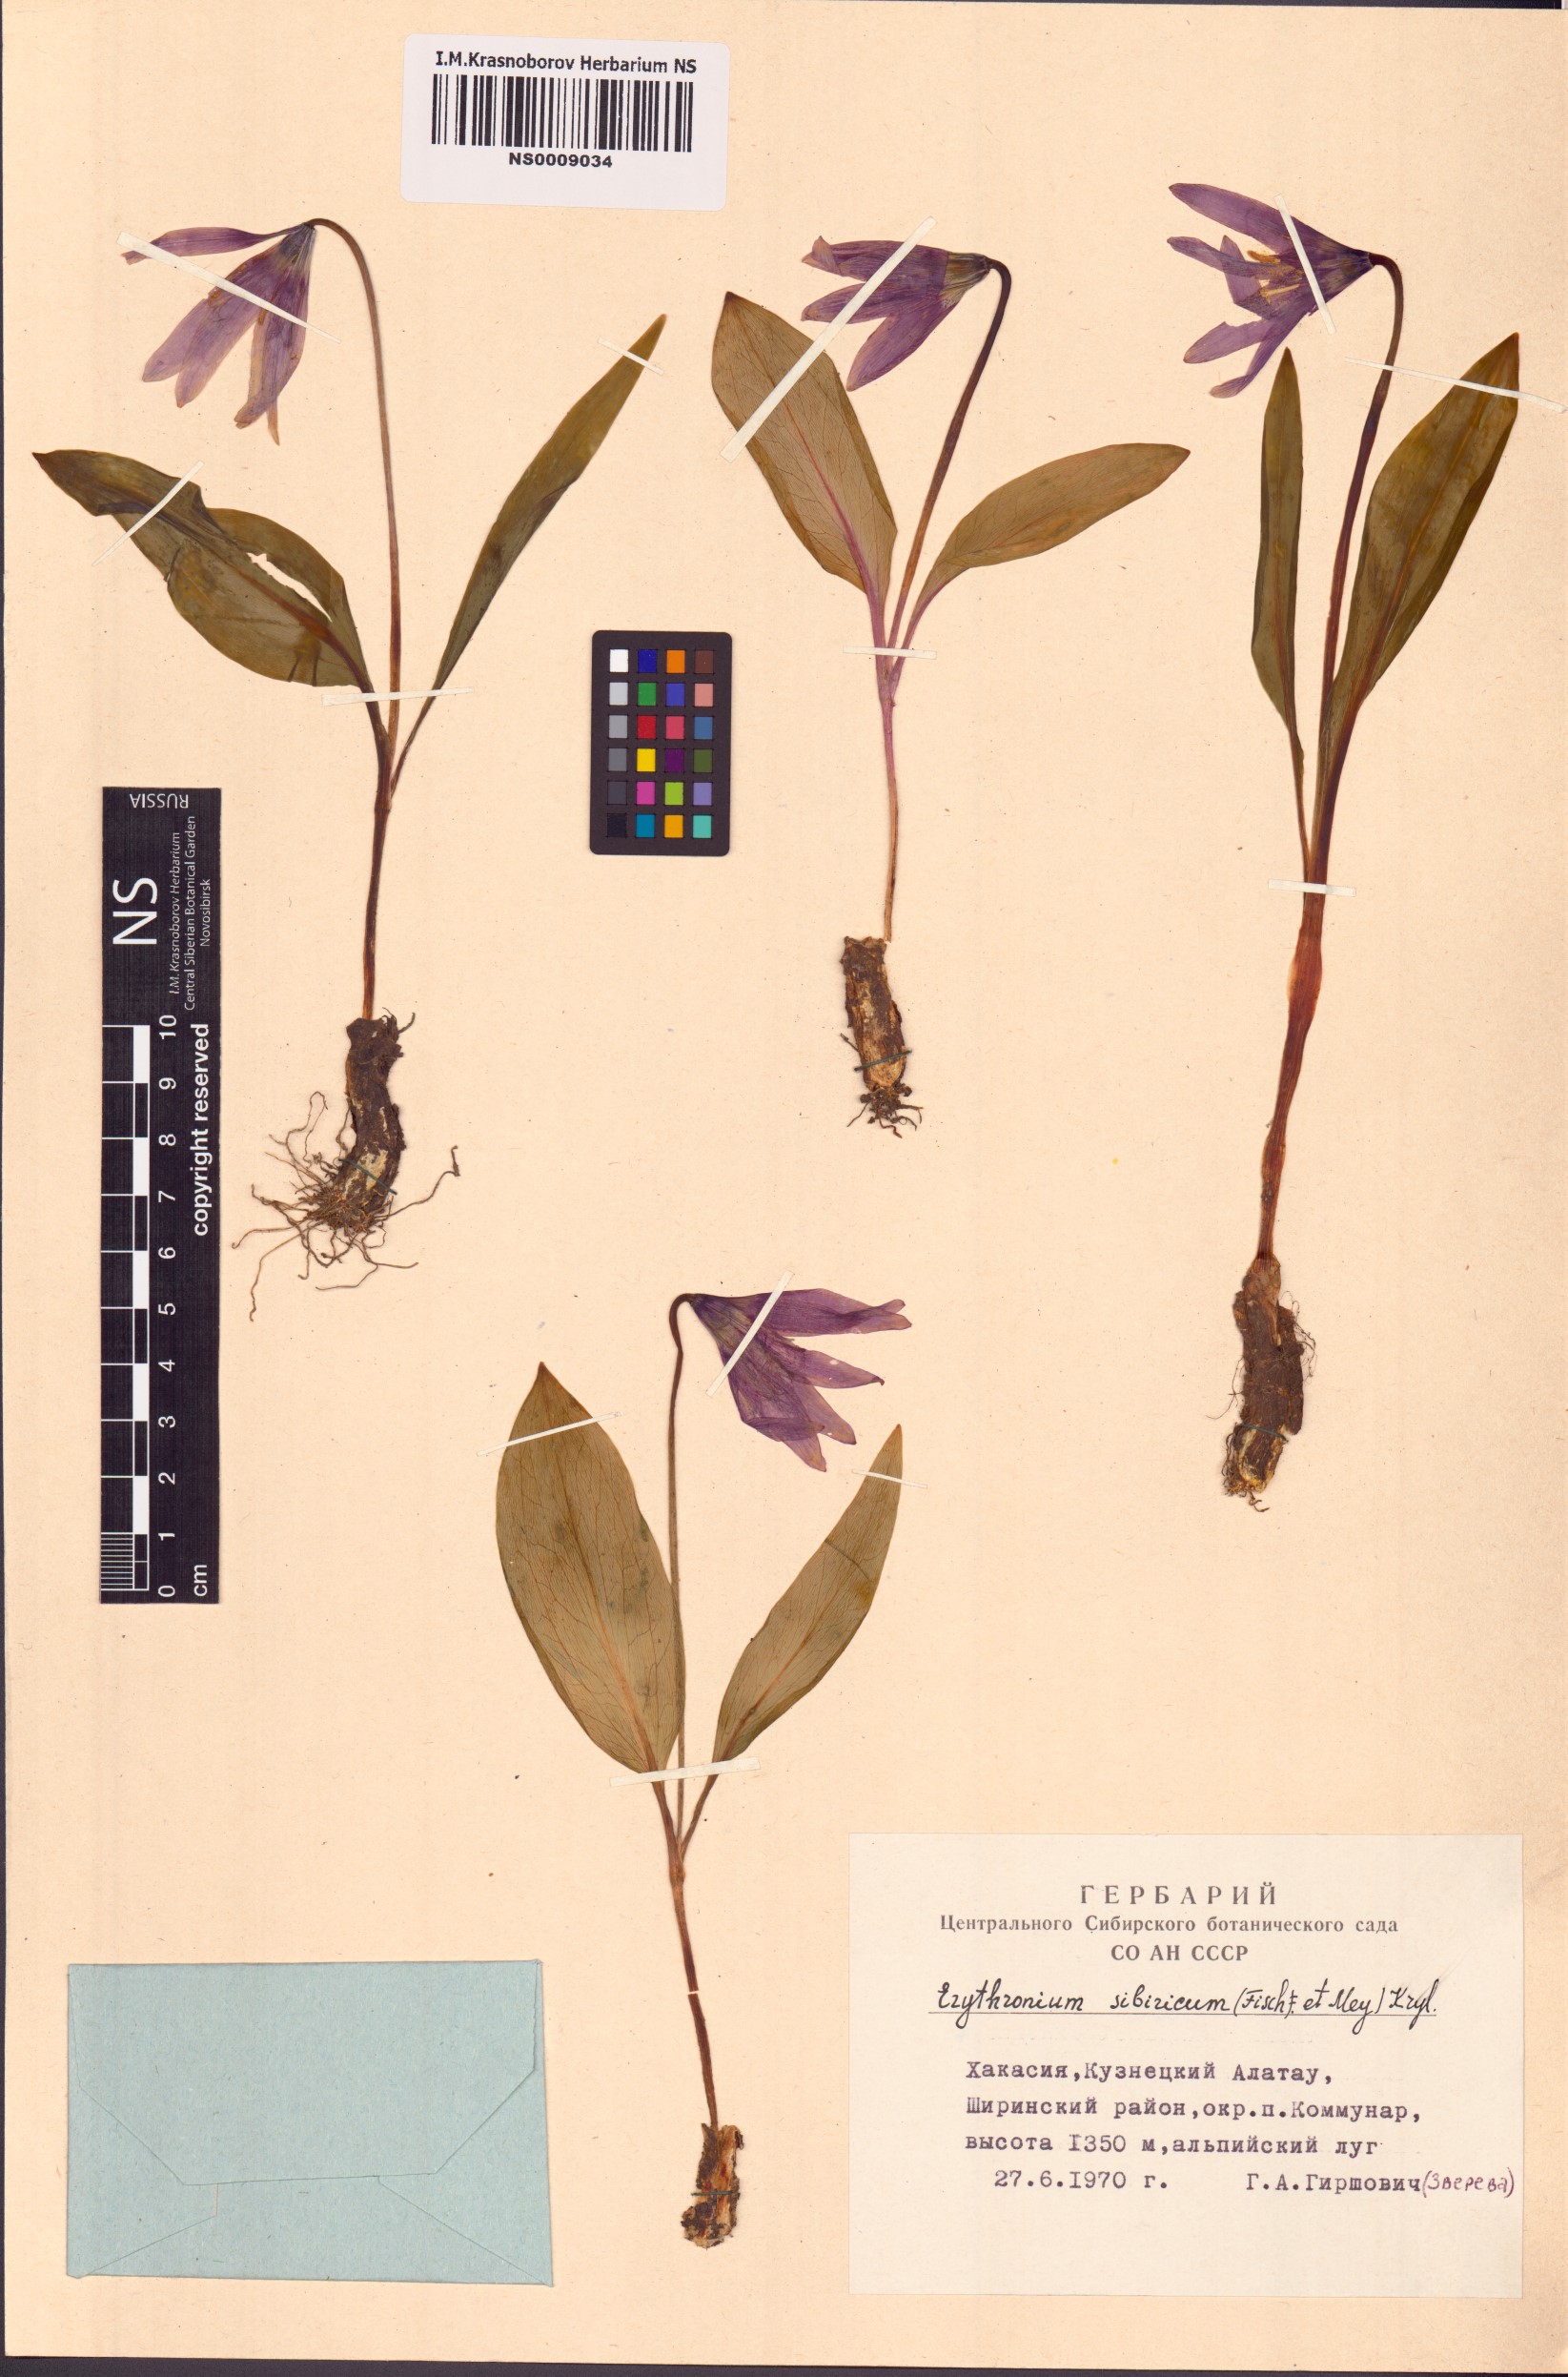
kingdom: Plantae
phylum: Tracheophyta
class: Liliopsida
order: Liliales
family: Liliaceae
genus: Erythronium
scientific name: Erythronium sibiricum
